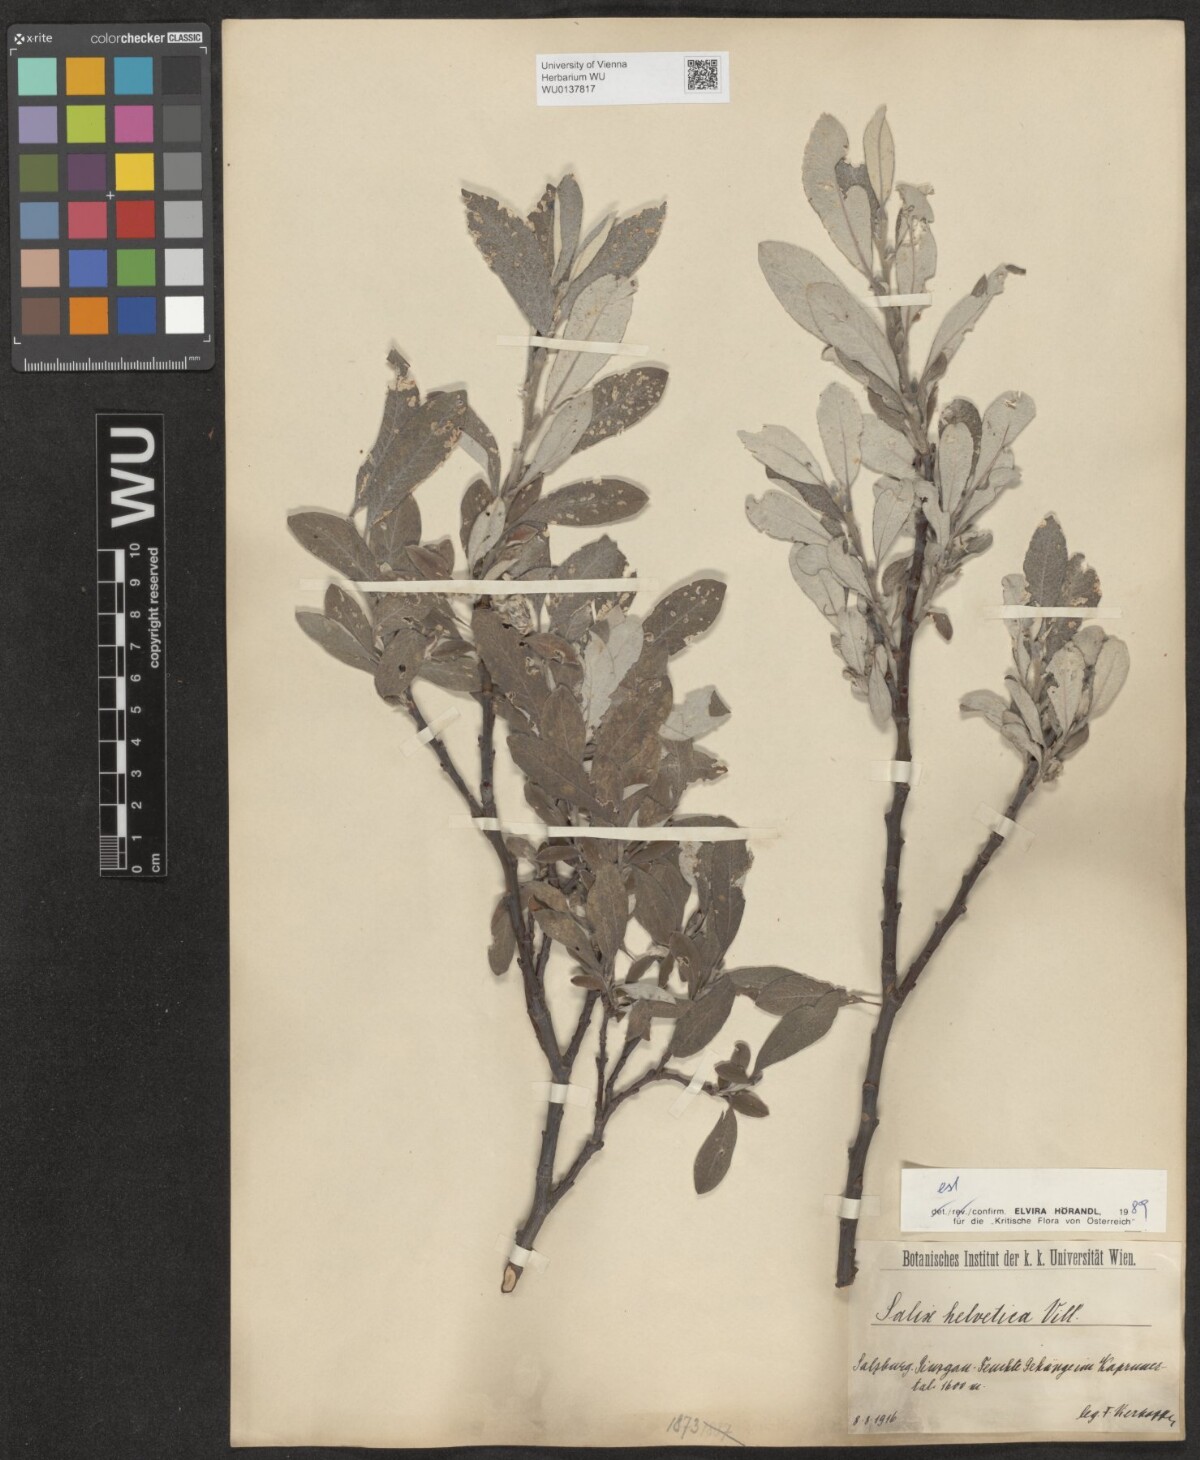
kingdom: Plantae
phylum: Tracheophyta
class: Magnoliopsida
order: Malpighiales
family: Salicaceae
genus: Salix
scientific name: Salix helvetica
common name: Swiss willow
